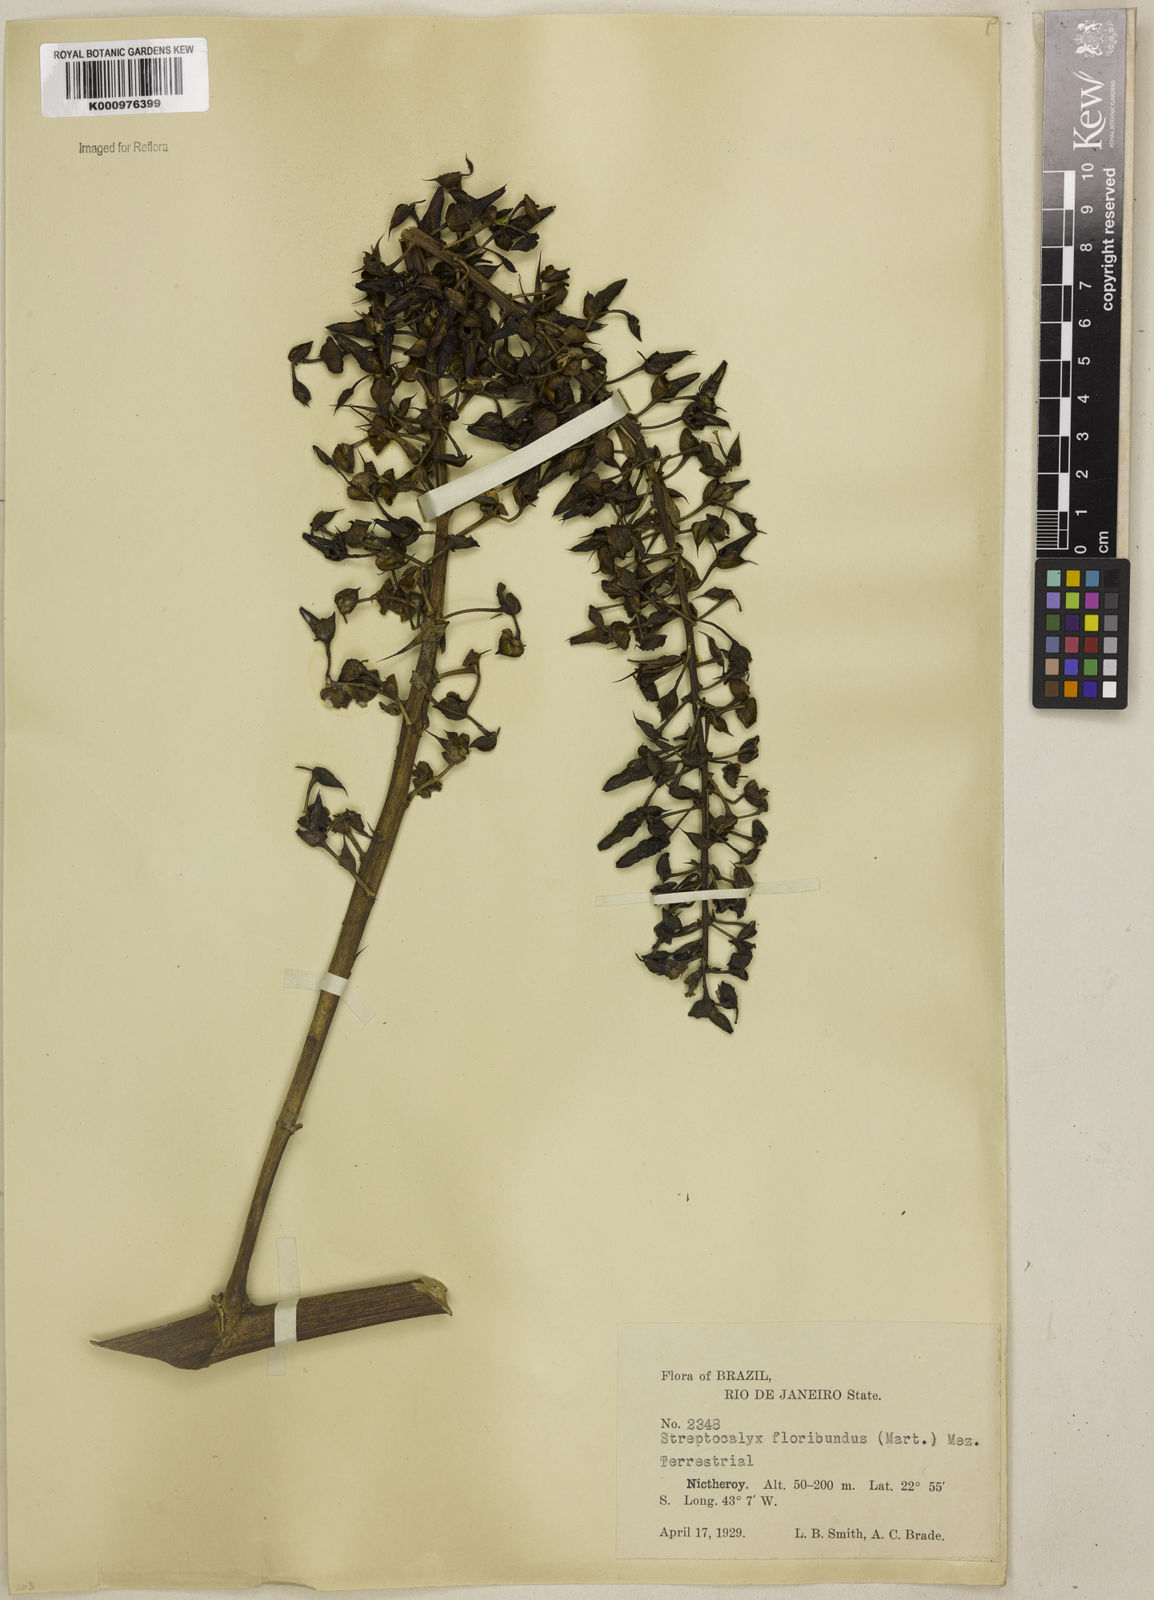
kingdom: Plantae
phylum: Tracheophyta
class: Liliopsida
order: Poales
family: Bromeliaceae
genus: Aechmea
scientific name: Aechmea floribunda
